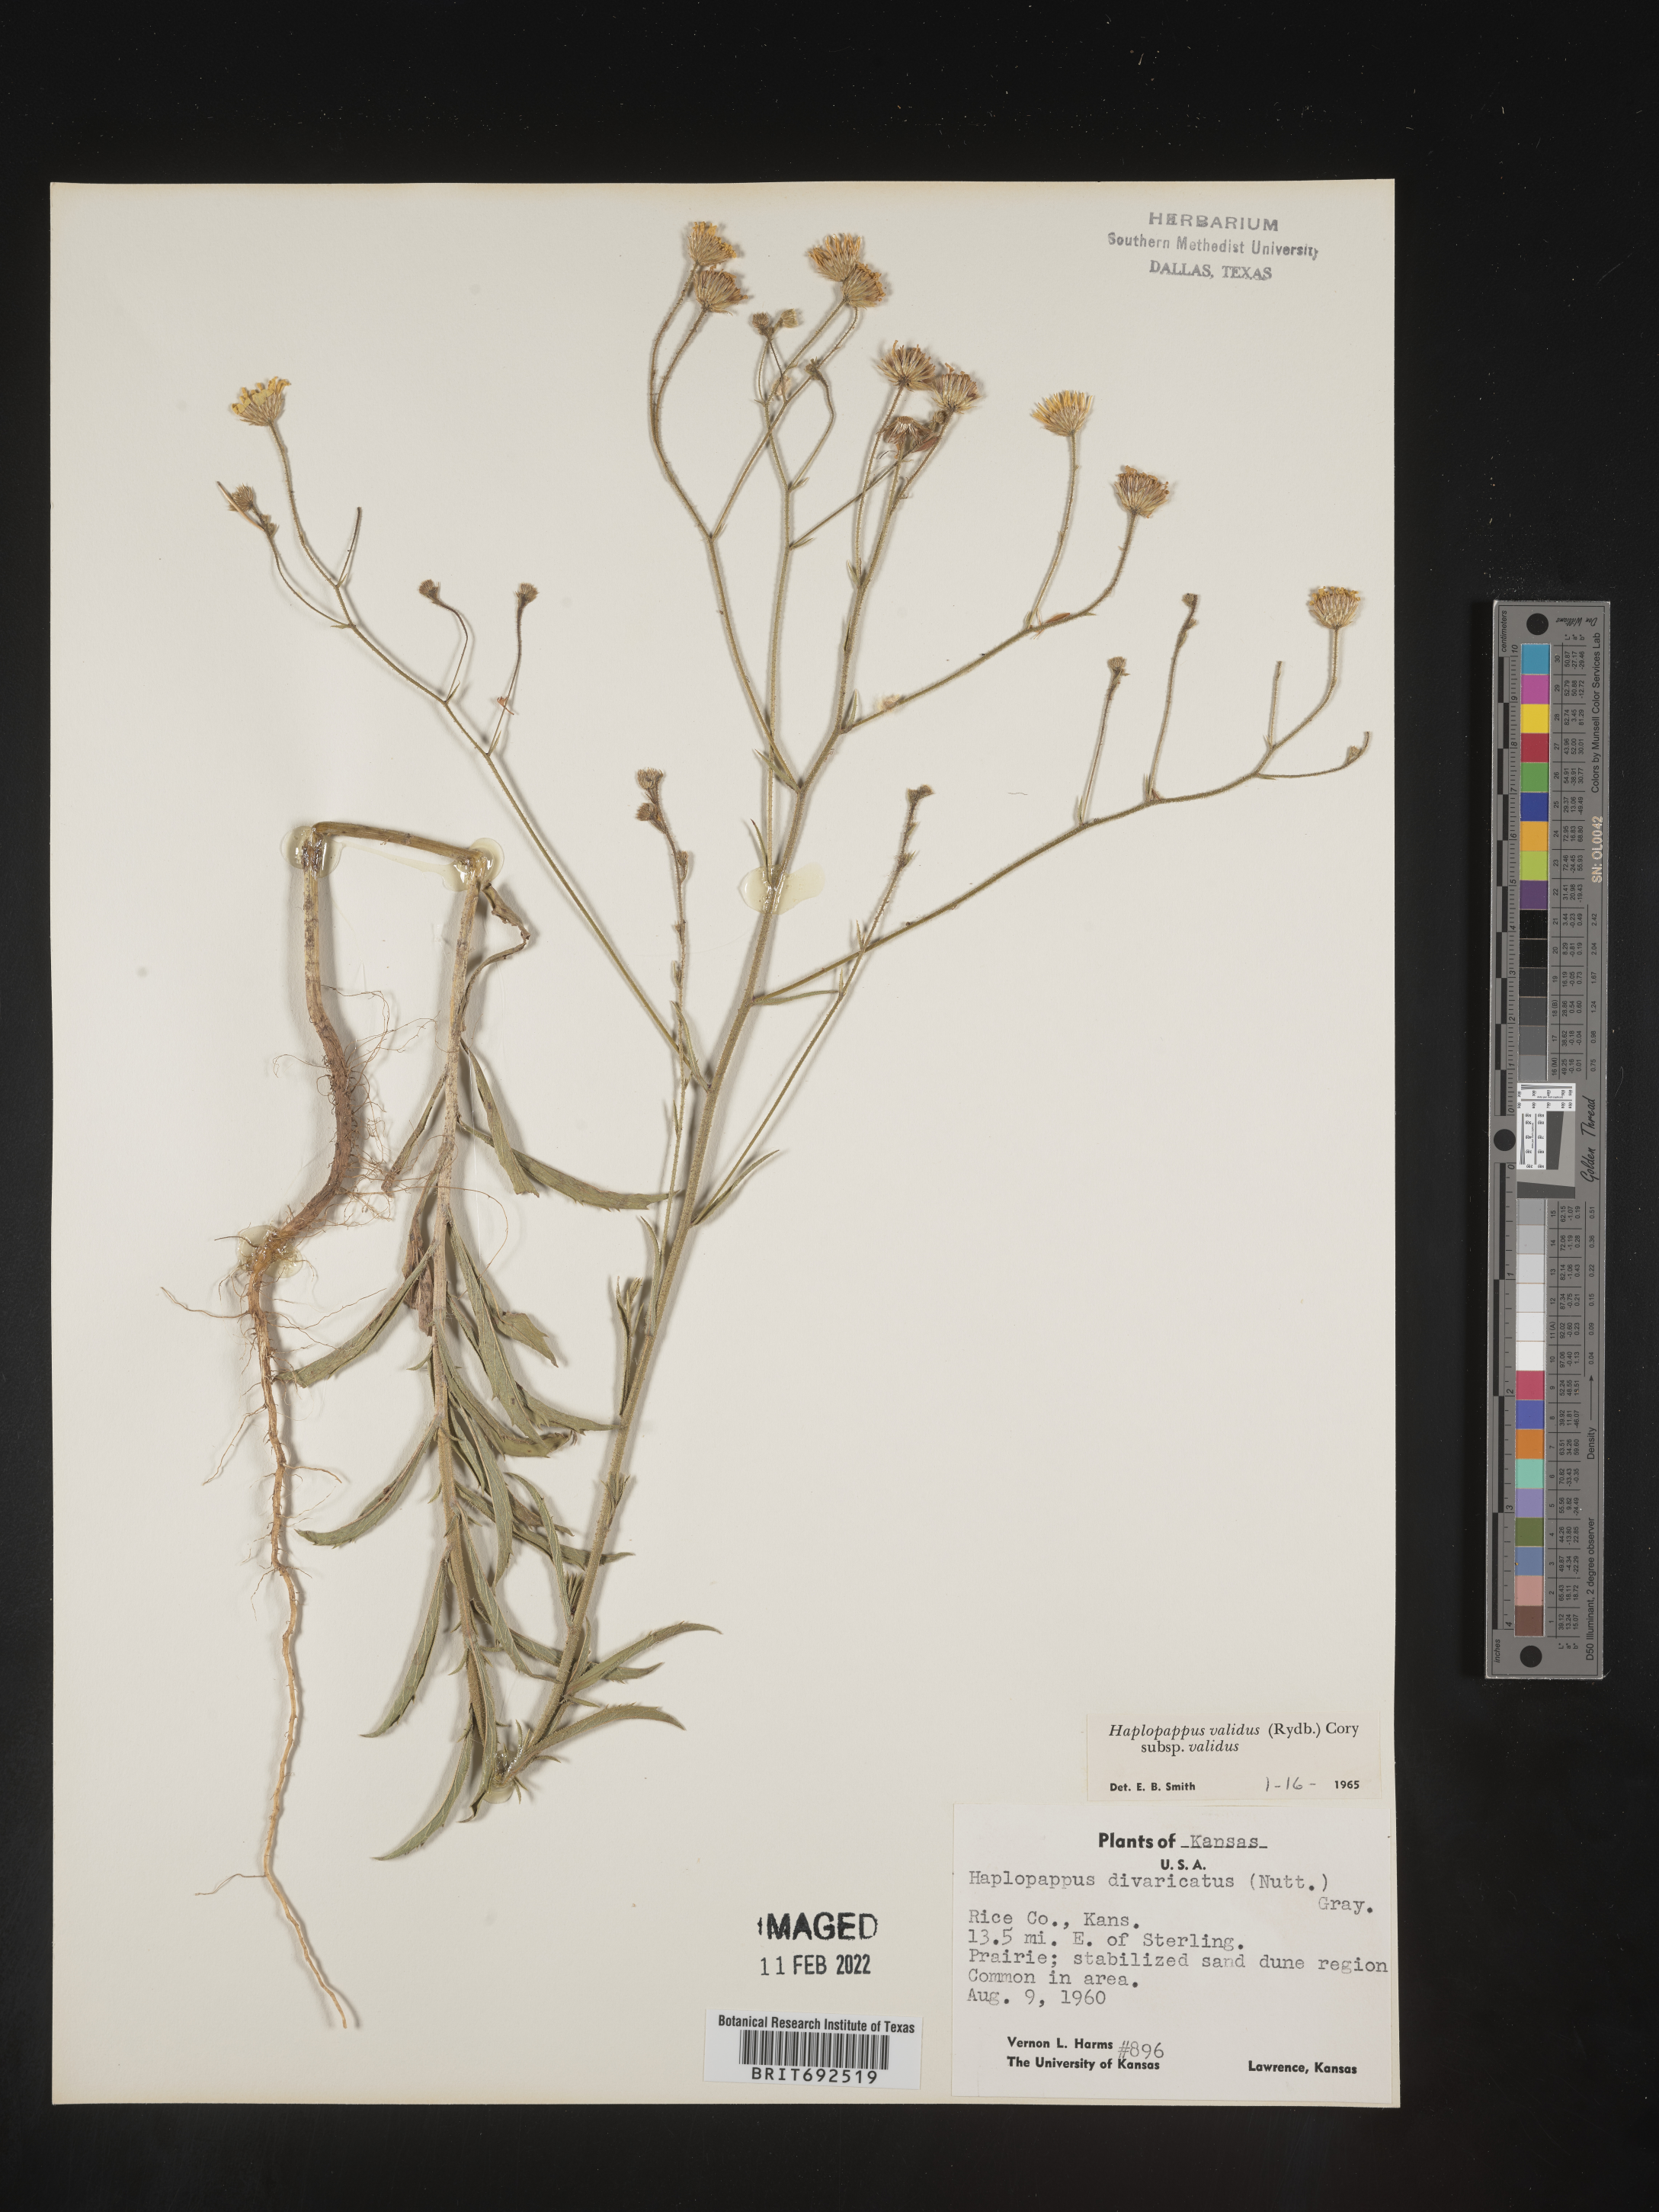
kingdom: Plantae
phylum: Tracheophyta
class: Magnoliopsida
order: Asterales
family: Asteraceae
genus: Croptilon
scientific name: Croptilon hookerianum
